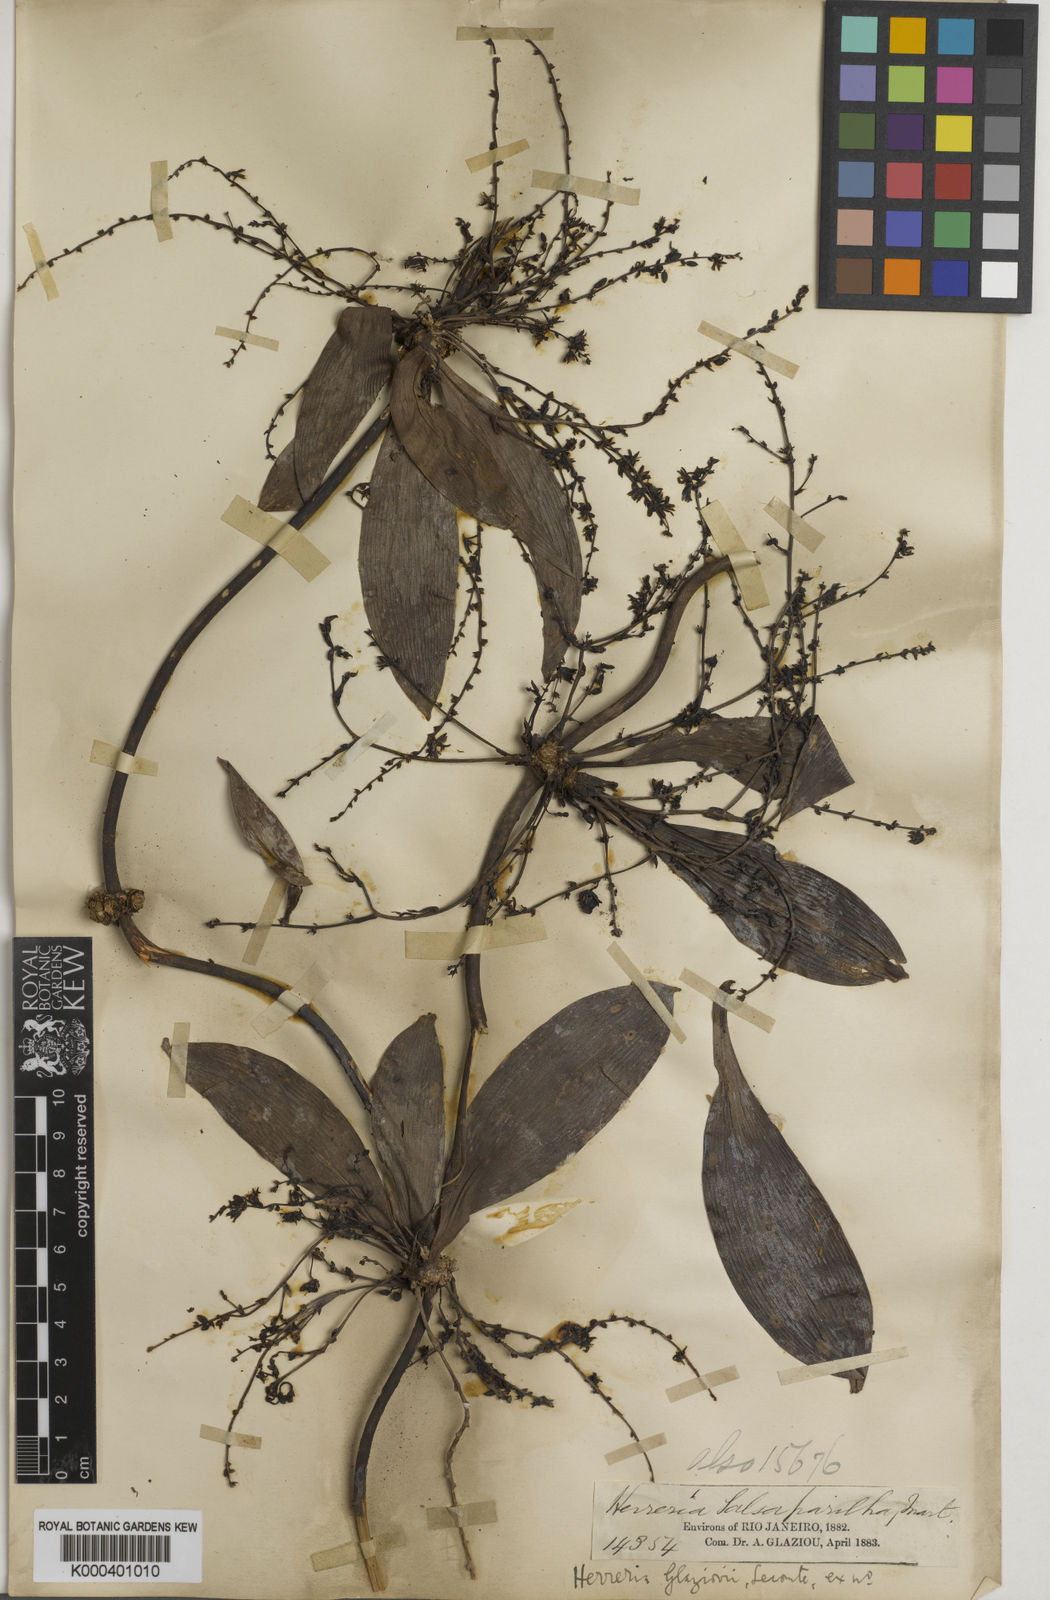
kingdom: Plantae
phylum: Tracheophyta
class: Liliopsida
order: Asparagales
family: Asparagaceae
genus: Herreria
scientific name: Herreria glaziovii
